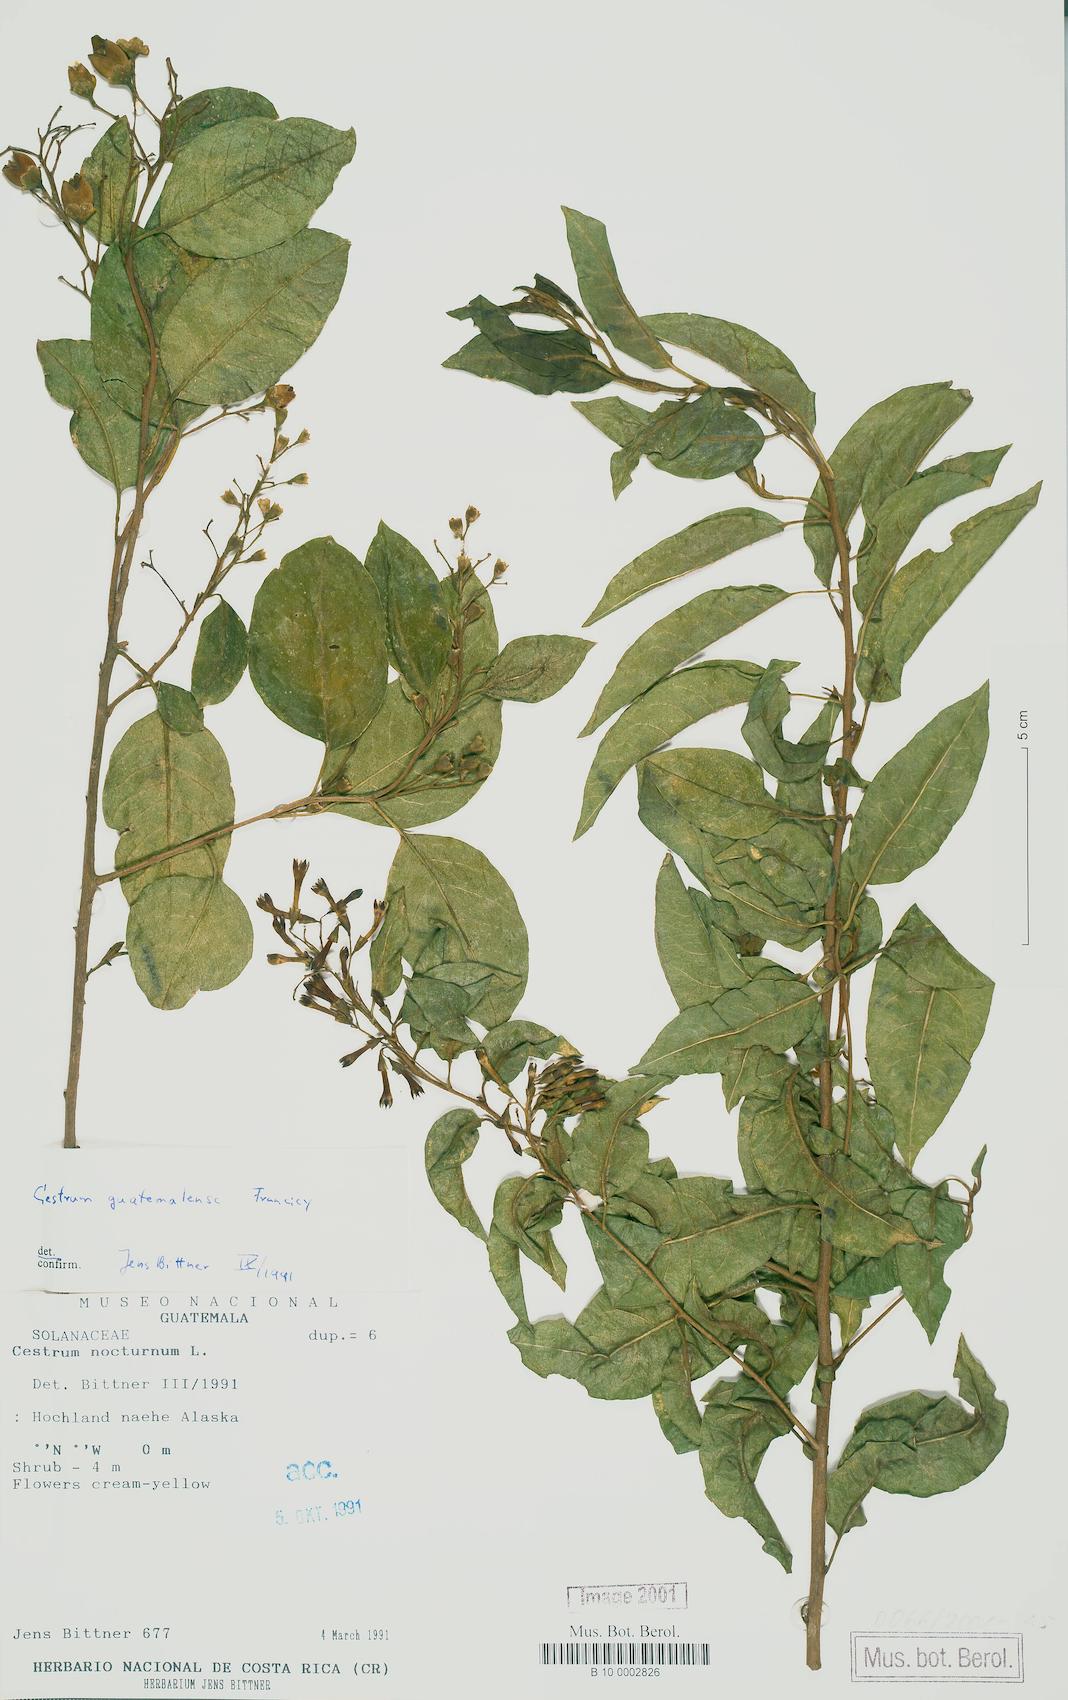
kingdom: Plantae
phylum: Tracheophyta
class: Magnoliopsida
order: Solanales
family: Solanaceae
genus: Cestrum
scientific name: Cestrum guatemalense
